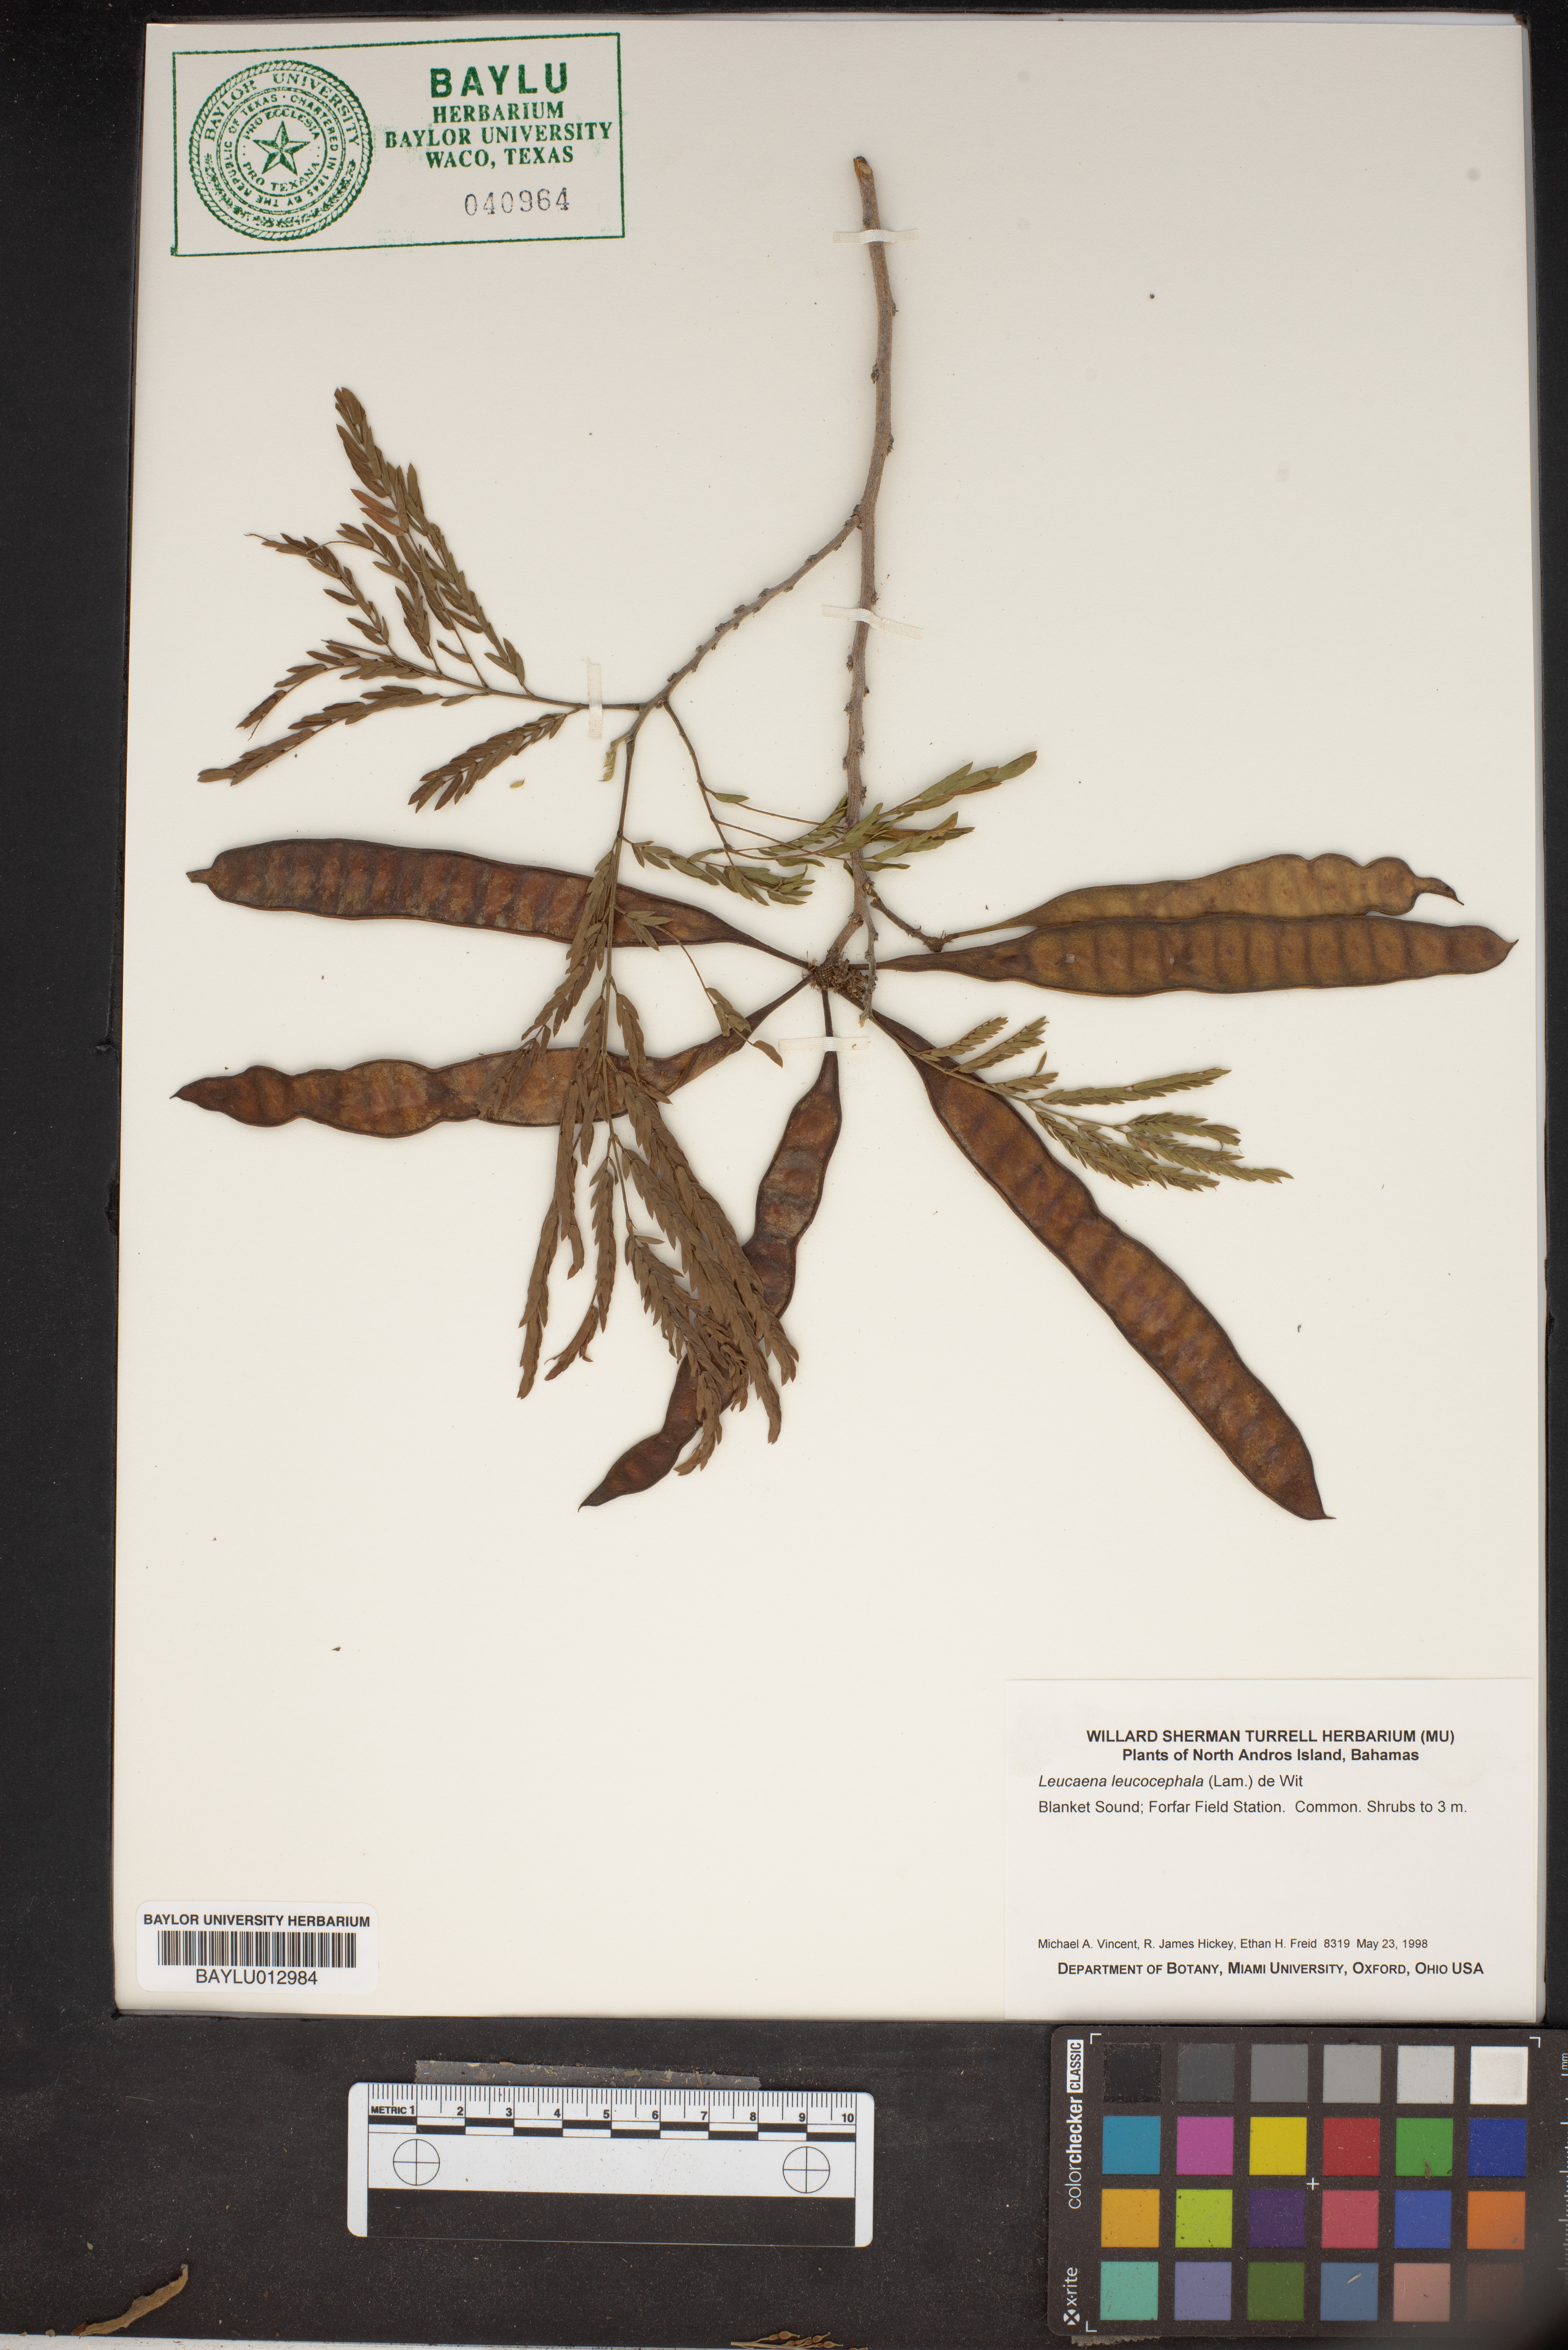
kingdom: Plantae
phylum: Tracheophyta
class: Magnoliopsida
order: Fabales
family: Fabaceae
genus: Leucaena
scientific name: Leucaena leucocephala
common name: White leadtree
